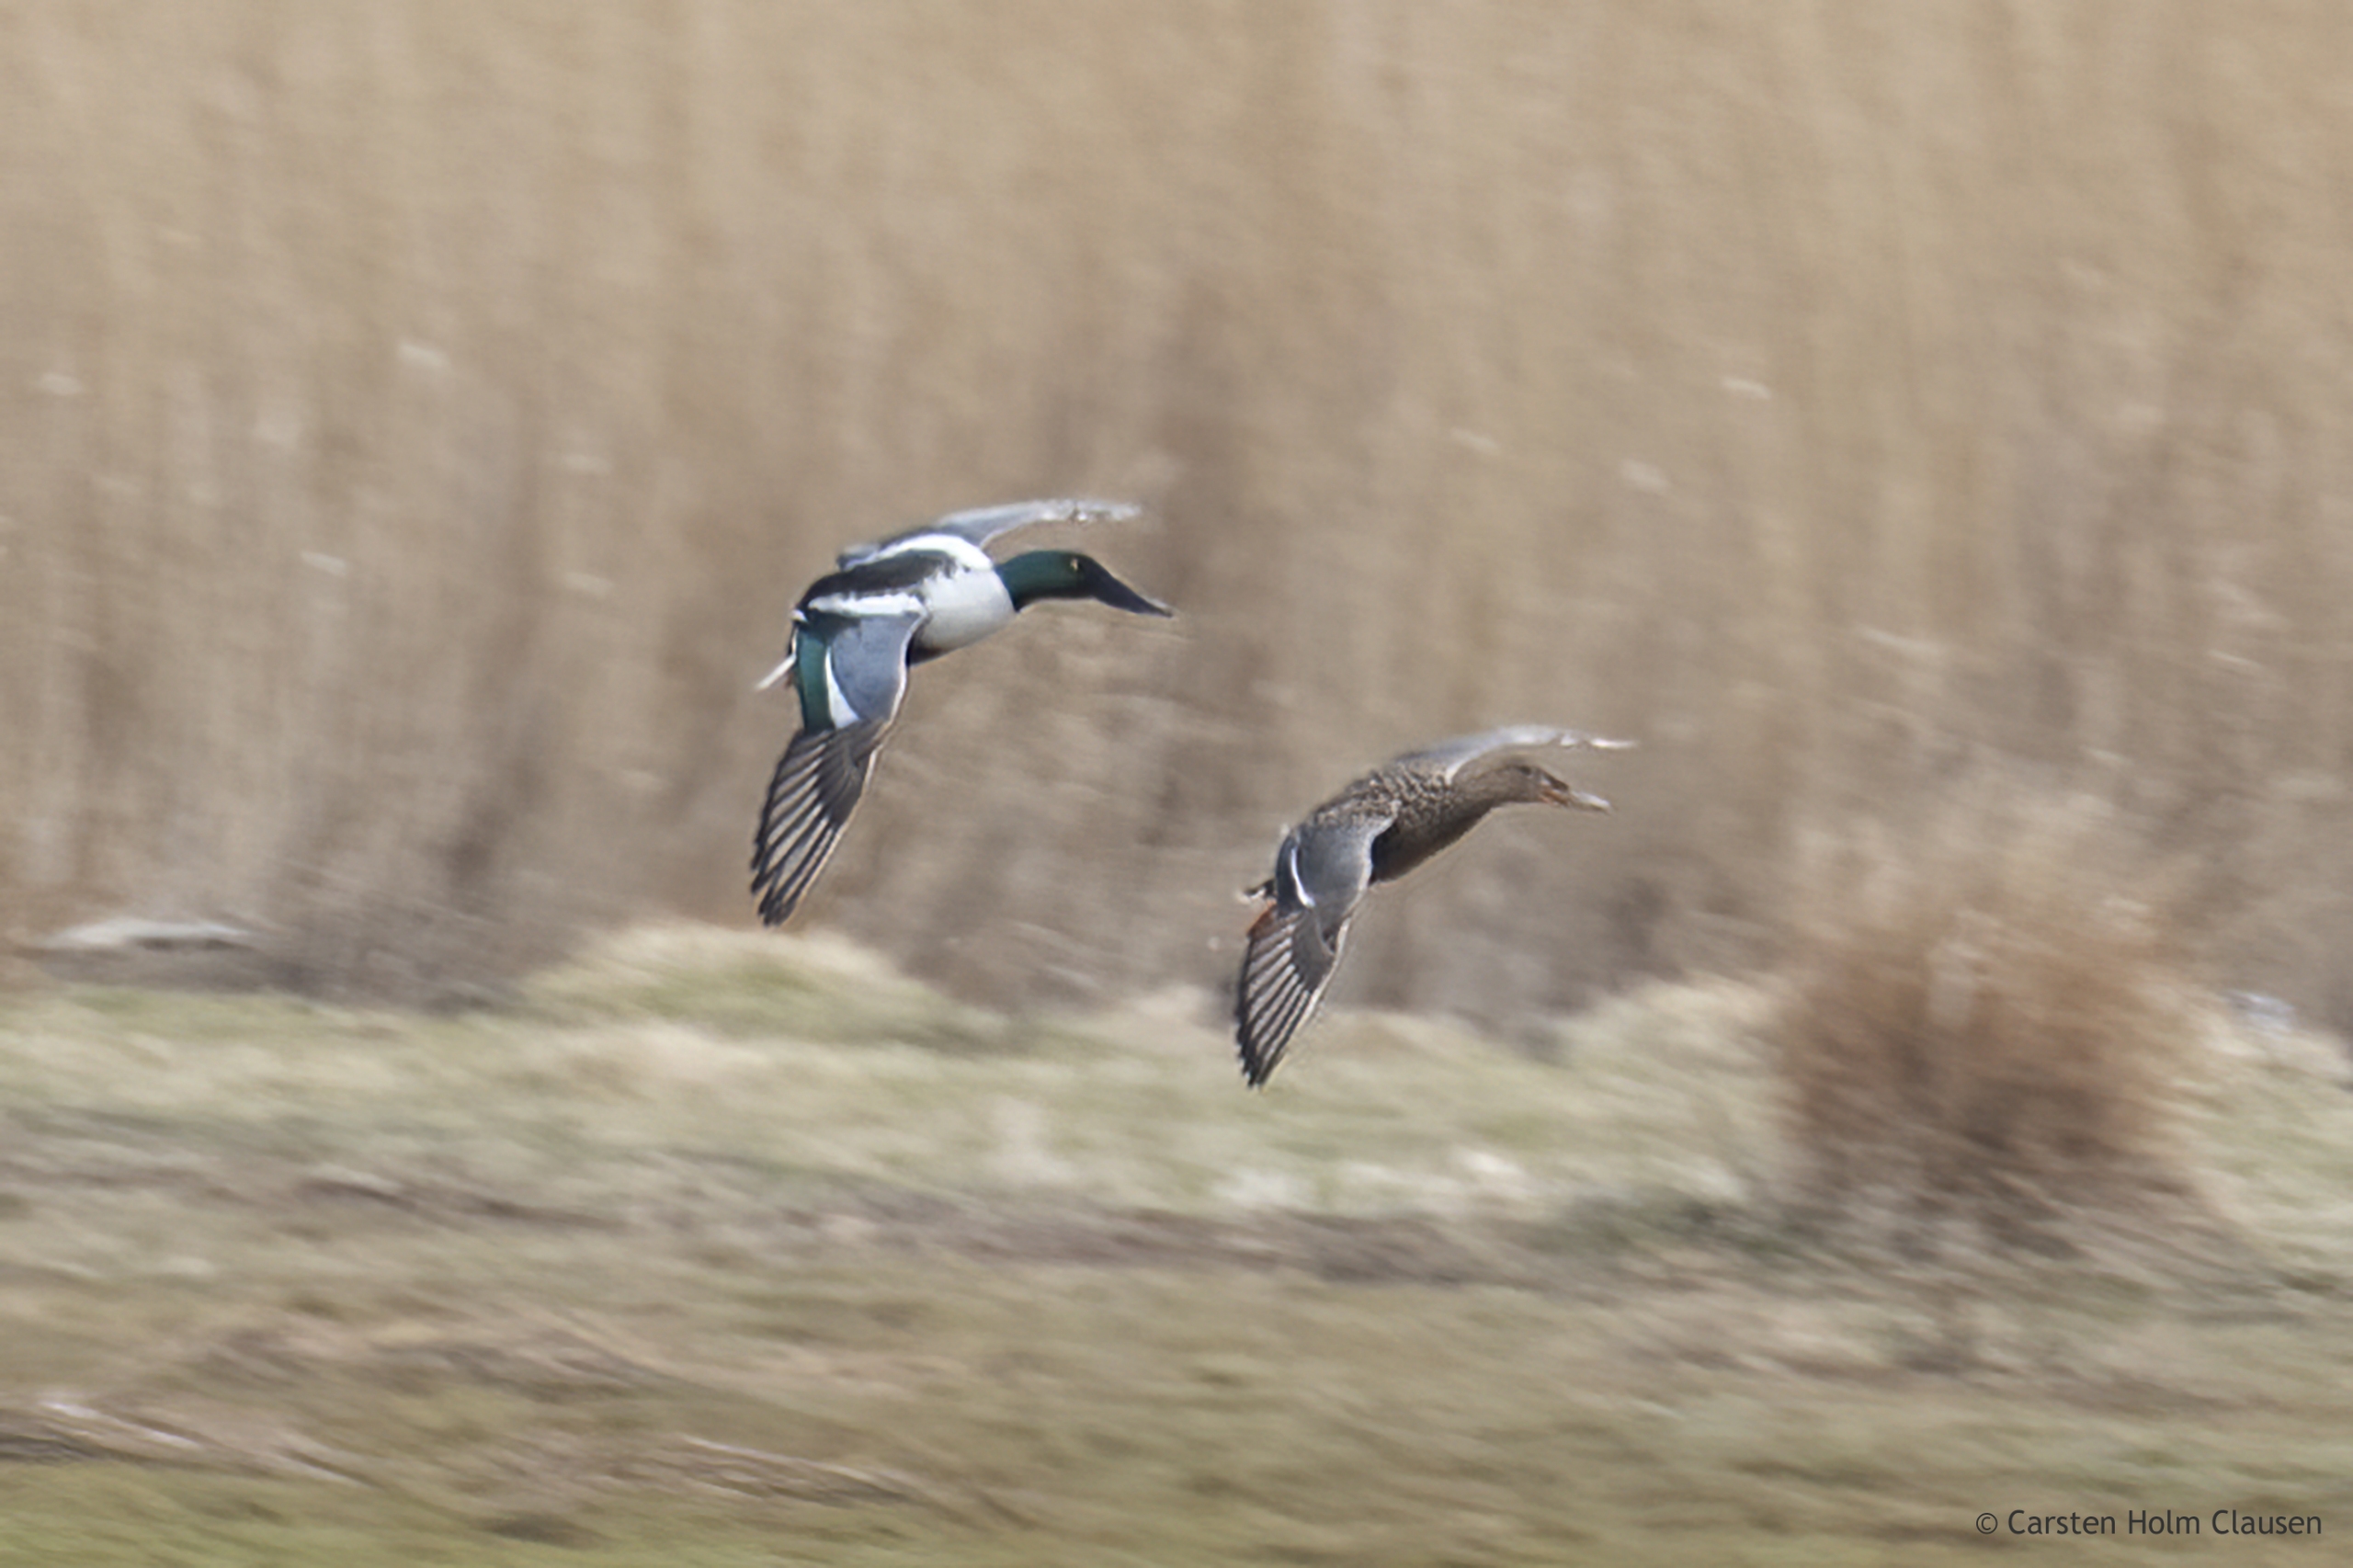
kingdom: Animalia
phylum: Chordata
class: Aves
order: Anseriformes
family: Anatidae
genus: Spatula
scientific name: Spatula clypeata
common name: Skeand
